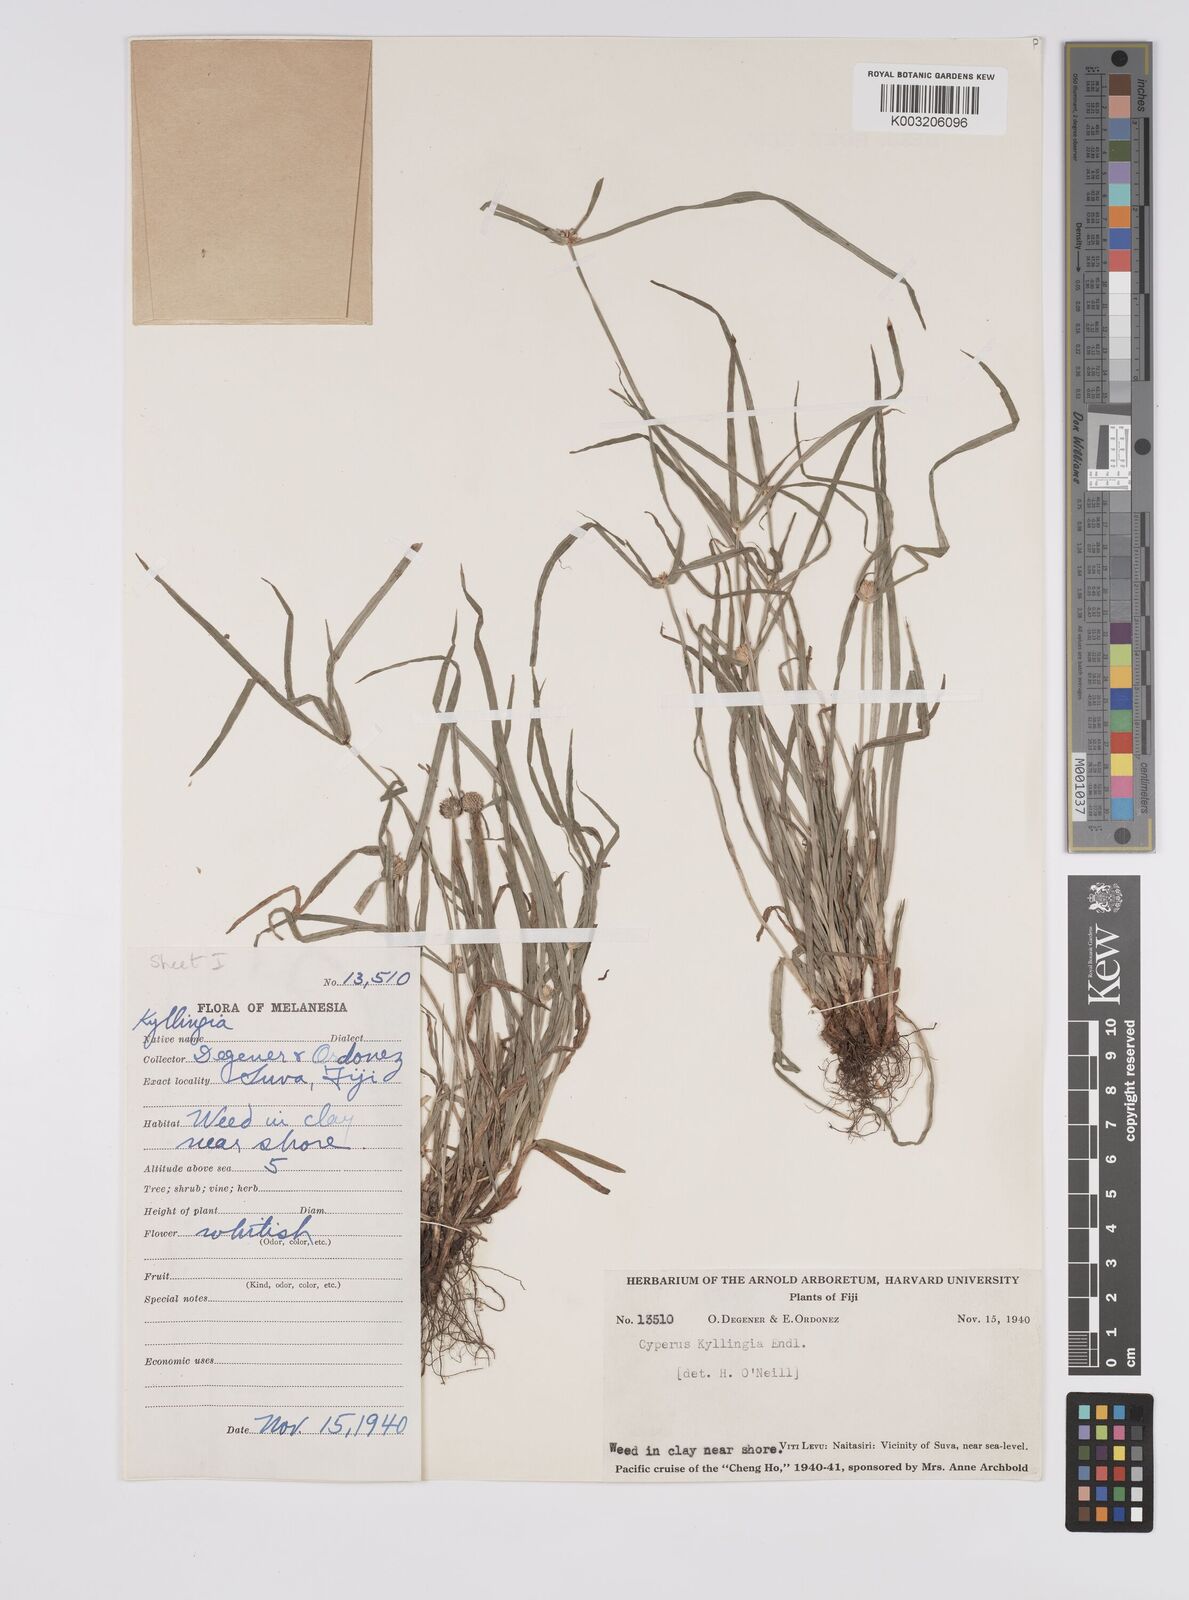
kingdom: Plantae
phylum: Tracheophyta
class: Liliopsida
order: Poales
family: Cyperaceae
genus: Cyperus
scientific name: Cyperus nemoralis
